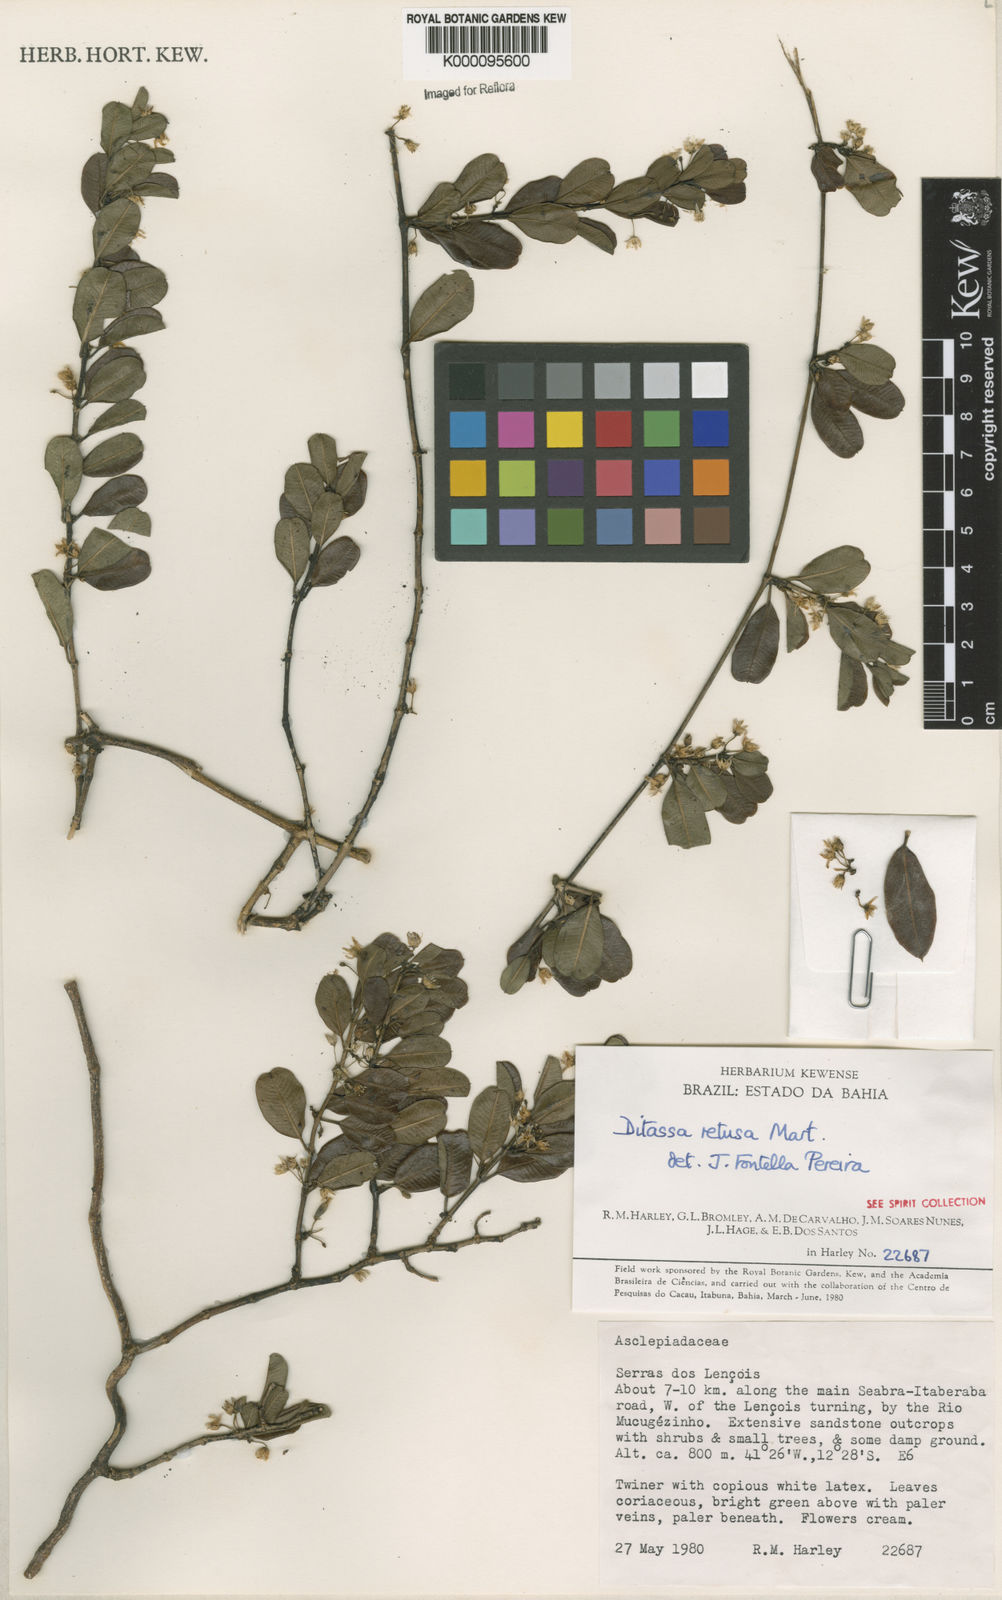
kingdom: Plantae
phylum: Tracheophyta
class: Magnoliopsida
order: Gentianales
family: Apocynaceae
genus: Ditassa
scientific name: Ditassa retusa
